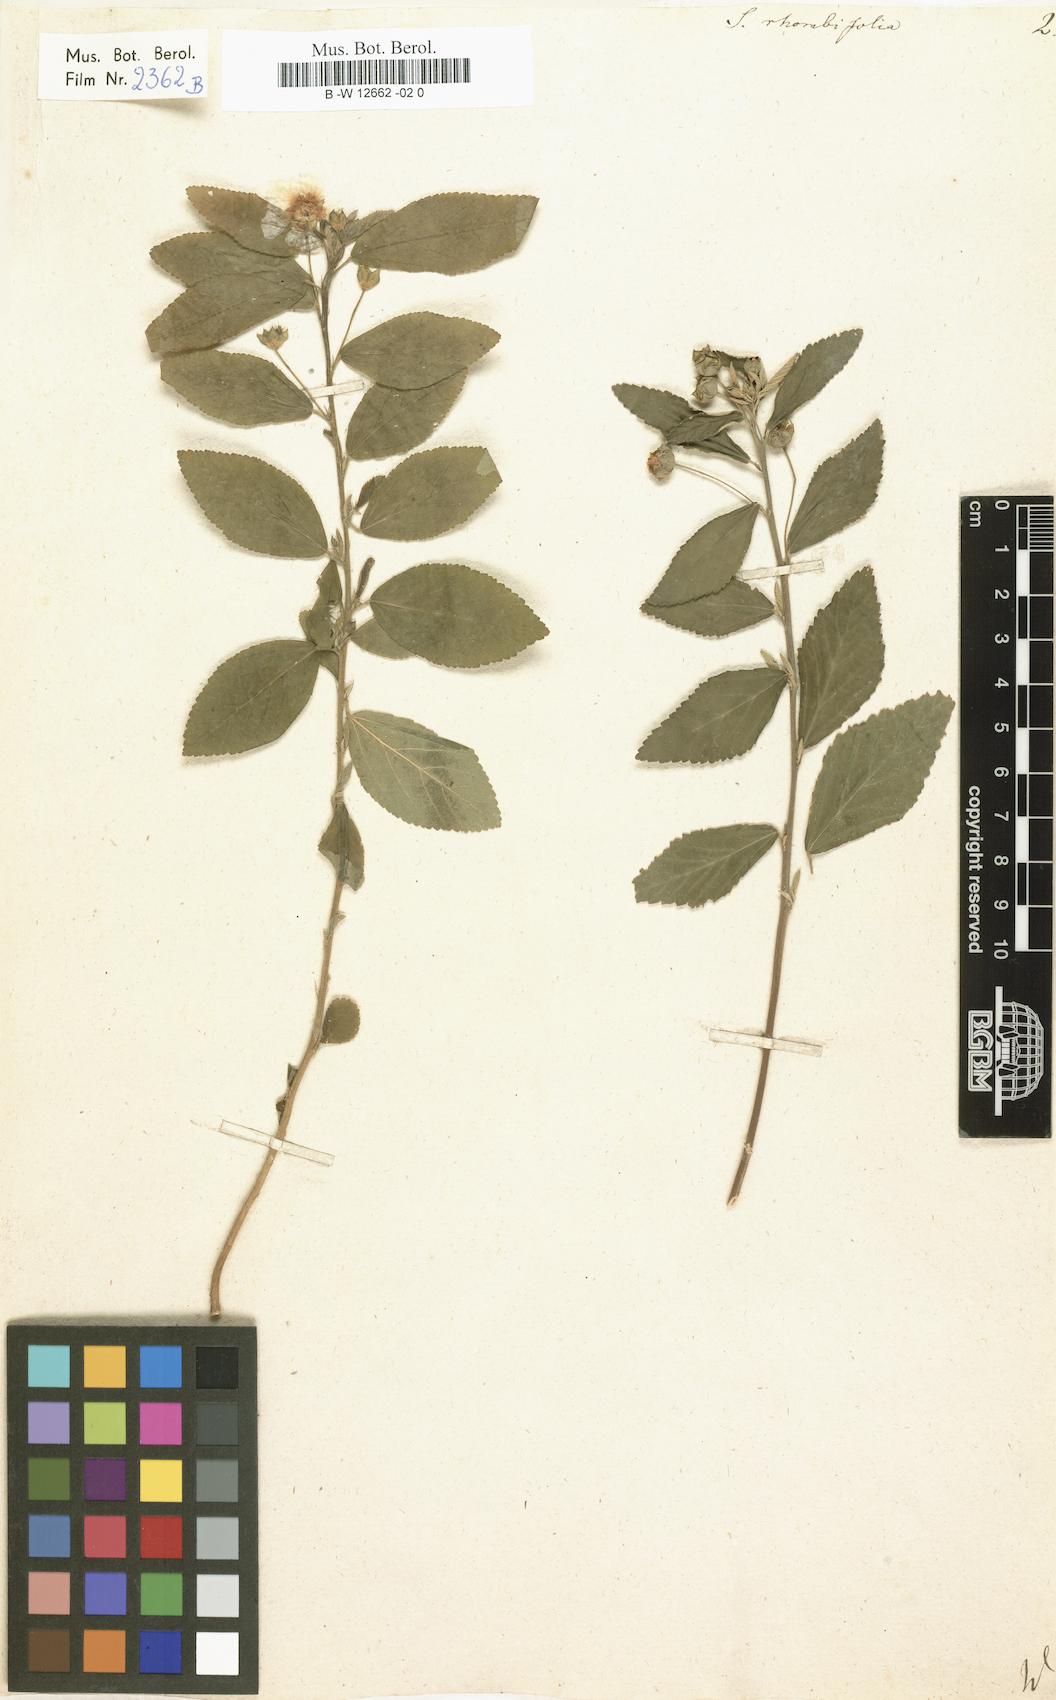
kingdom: Plantae
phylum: Tracheophyta
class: Magnoliopsida
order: Malvales
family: Malvaceae
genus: Sida
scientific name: Sida rhombifolia
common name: Queensland-hemp
